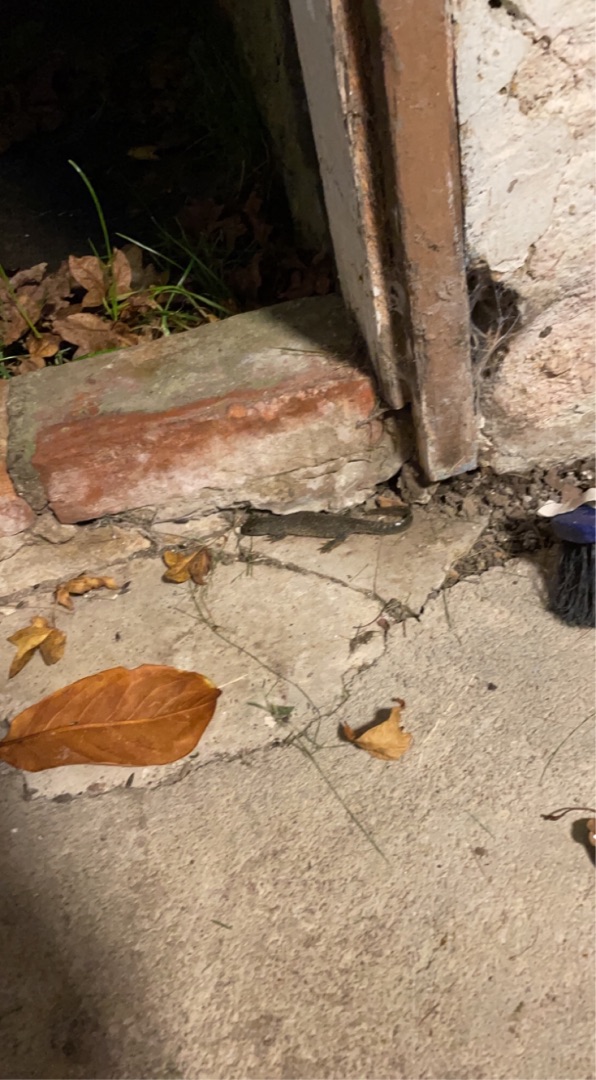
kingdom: Animalia
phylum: Chordata
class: Amphibia
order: Caudata
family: Salamandridae
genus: Triturus
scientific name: Triturus cristatus
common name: Stor vandsalamander
